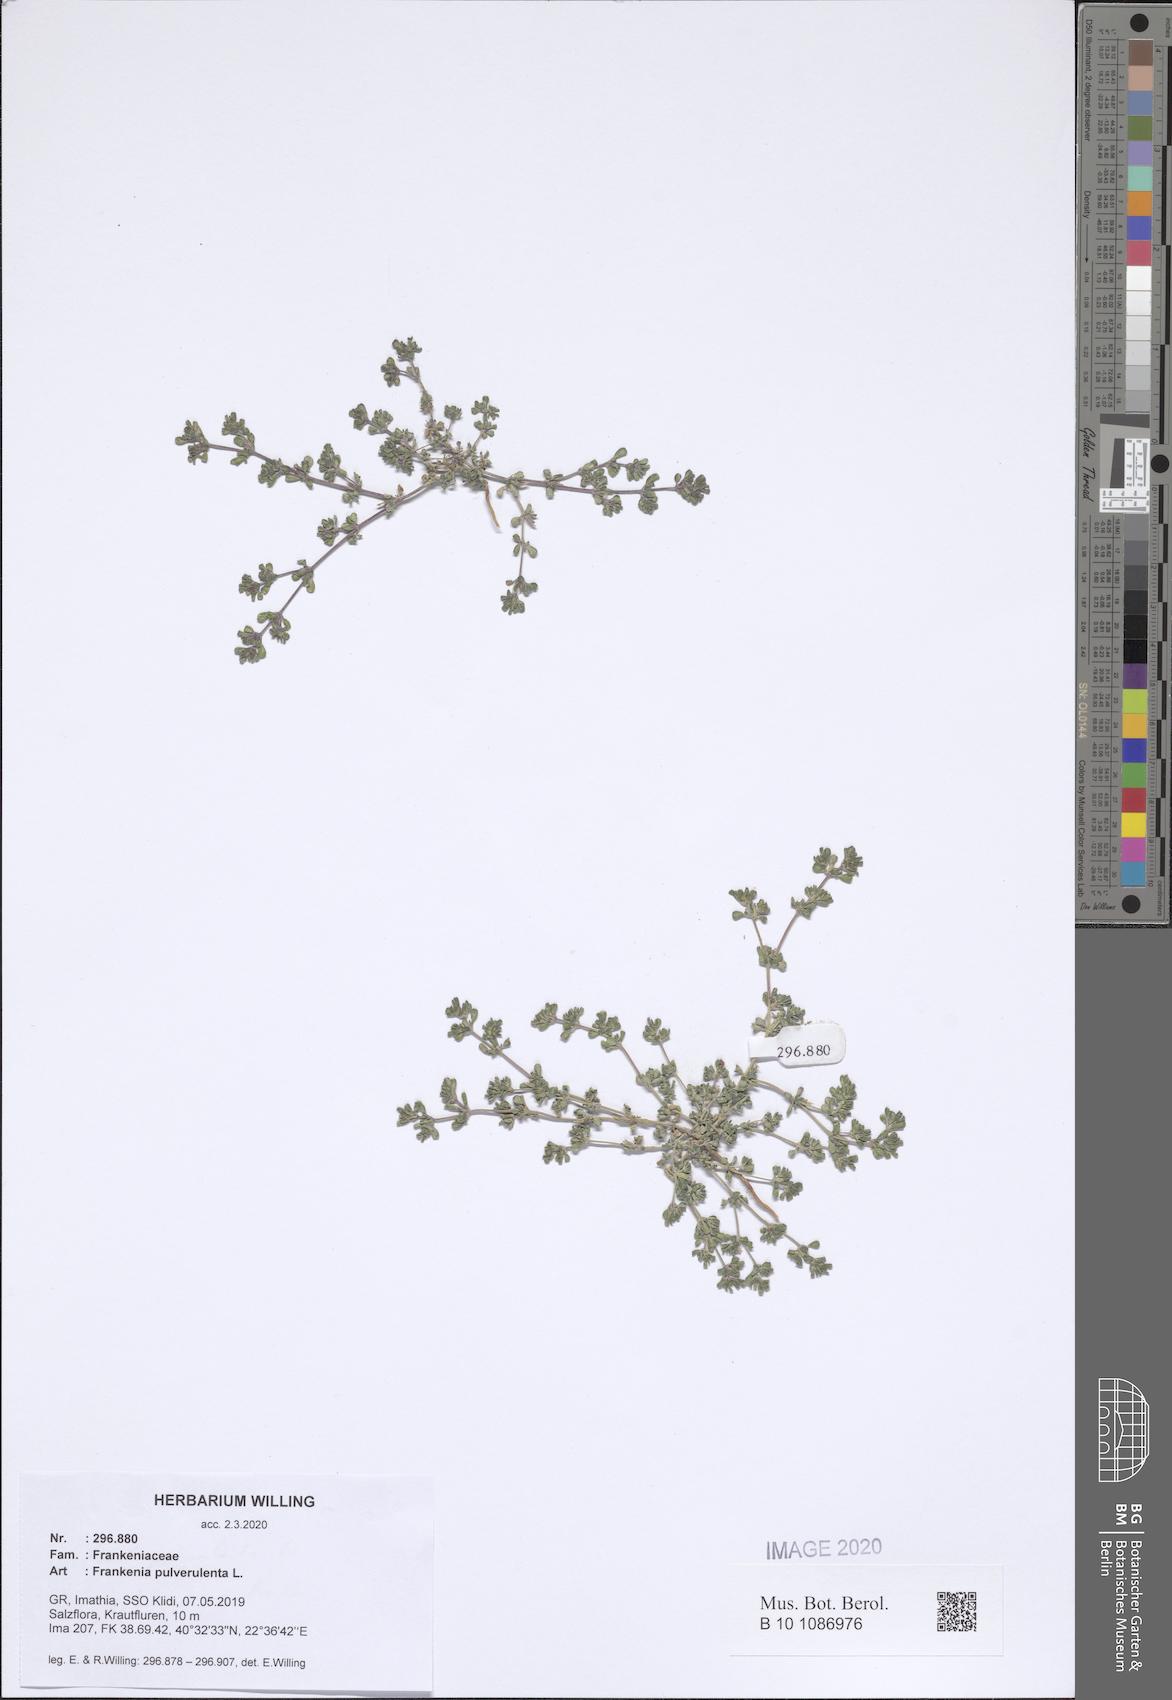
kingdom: Plantae
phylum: Tracheophyta
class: Magnoliopsida
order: Caryophyllales
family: Frankeniaceae
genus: Frankenia
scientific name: Frankenia pulverulenta
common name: European seaheath
